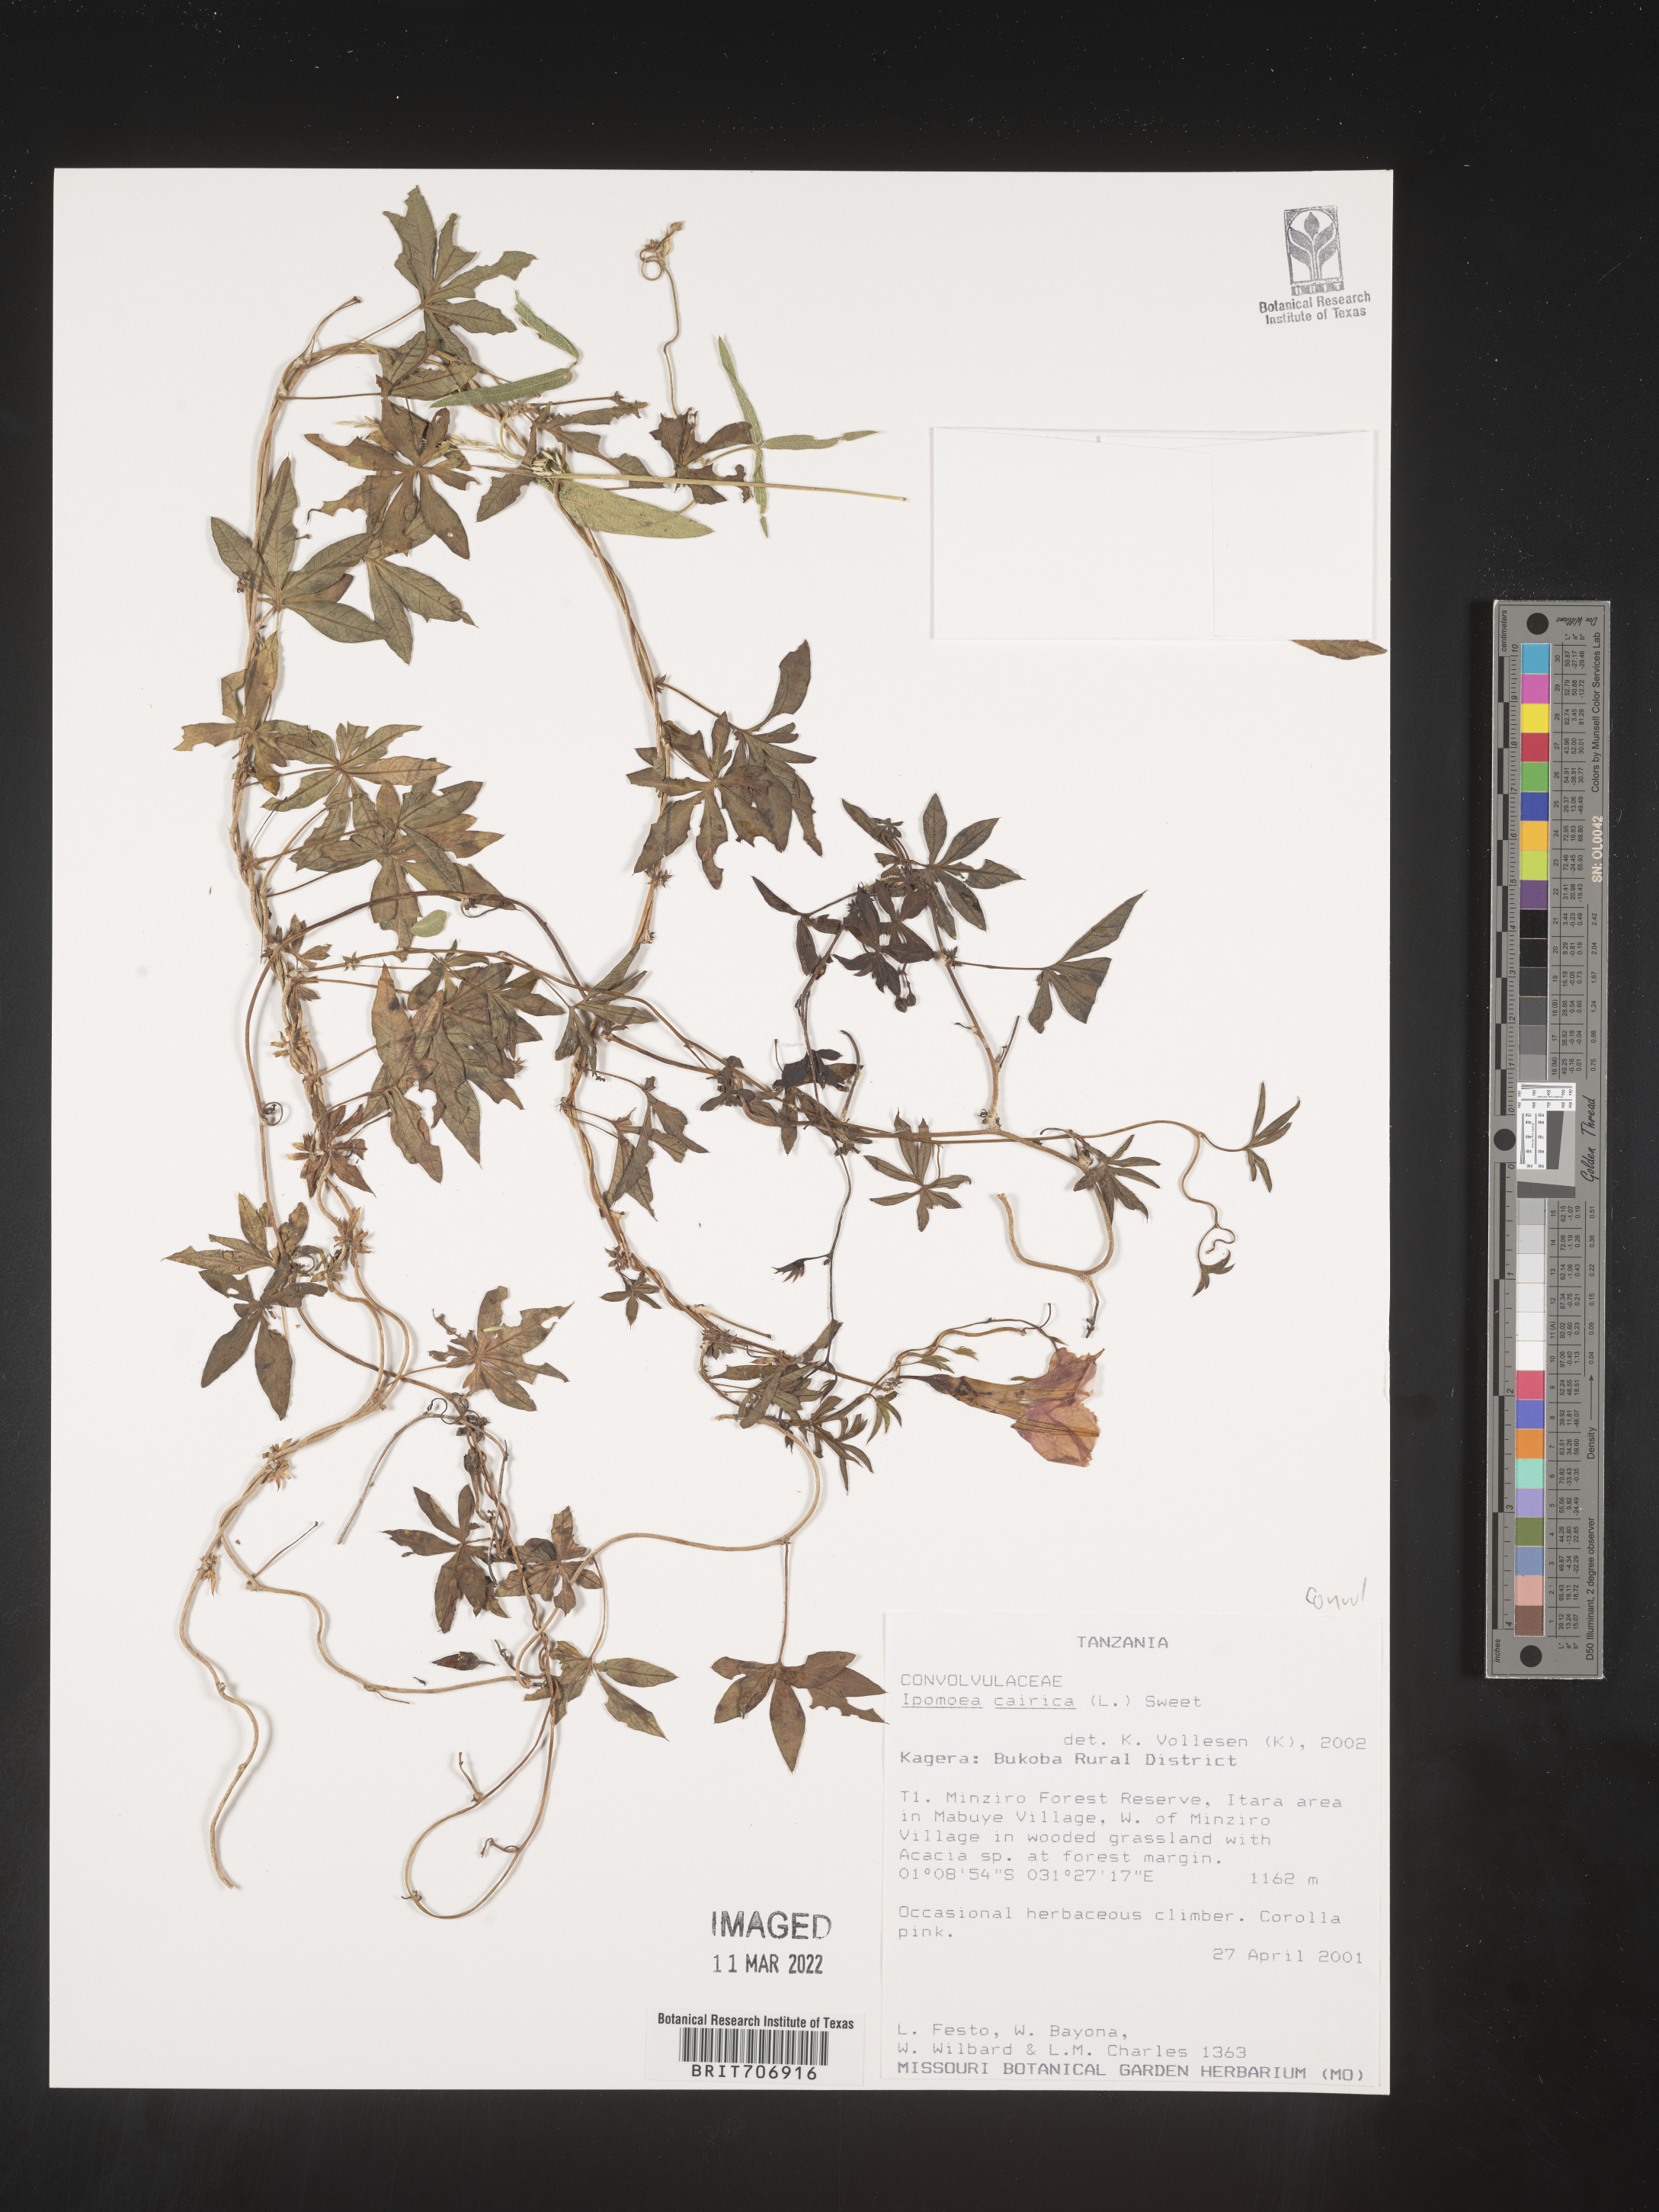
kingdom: Plantae
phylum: Tracheophyta
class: Magnoliopsida
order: Solanales
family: Convolvulaceae
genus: Ipomoea
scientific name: Ipomoea
